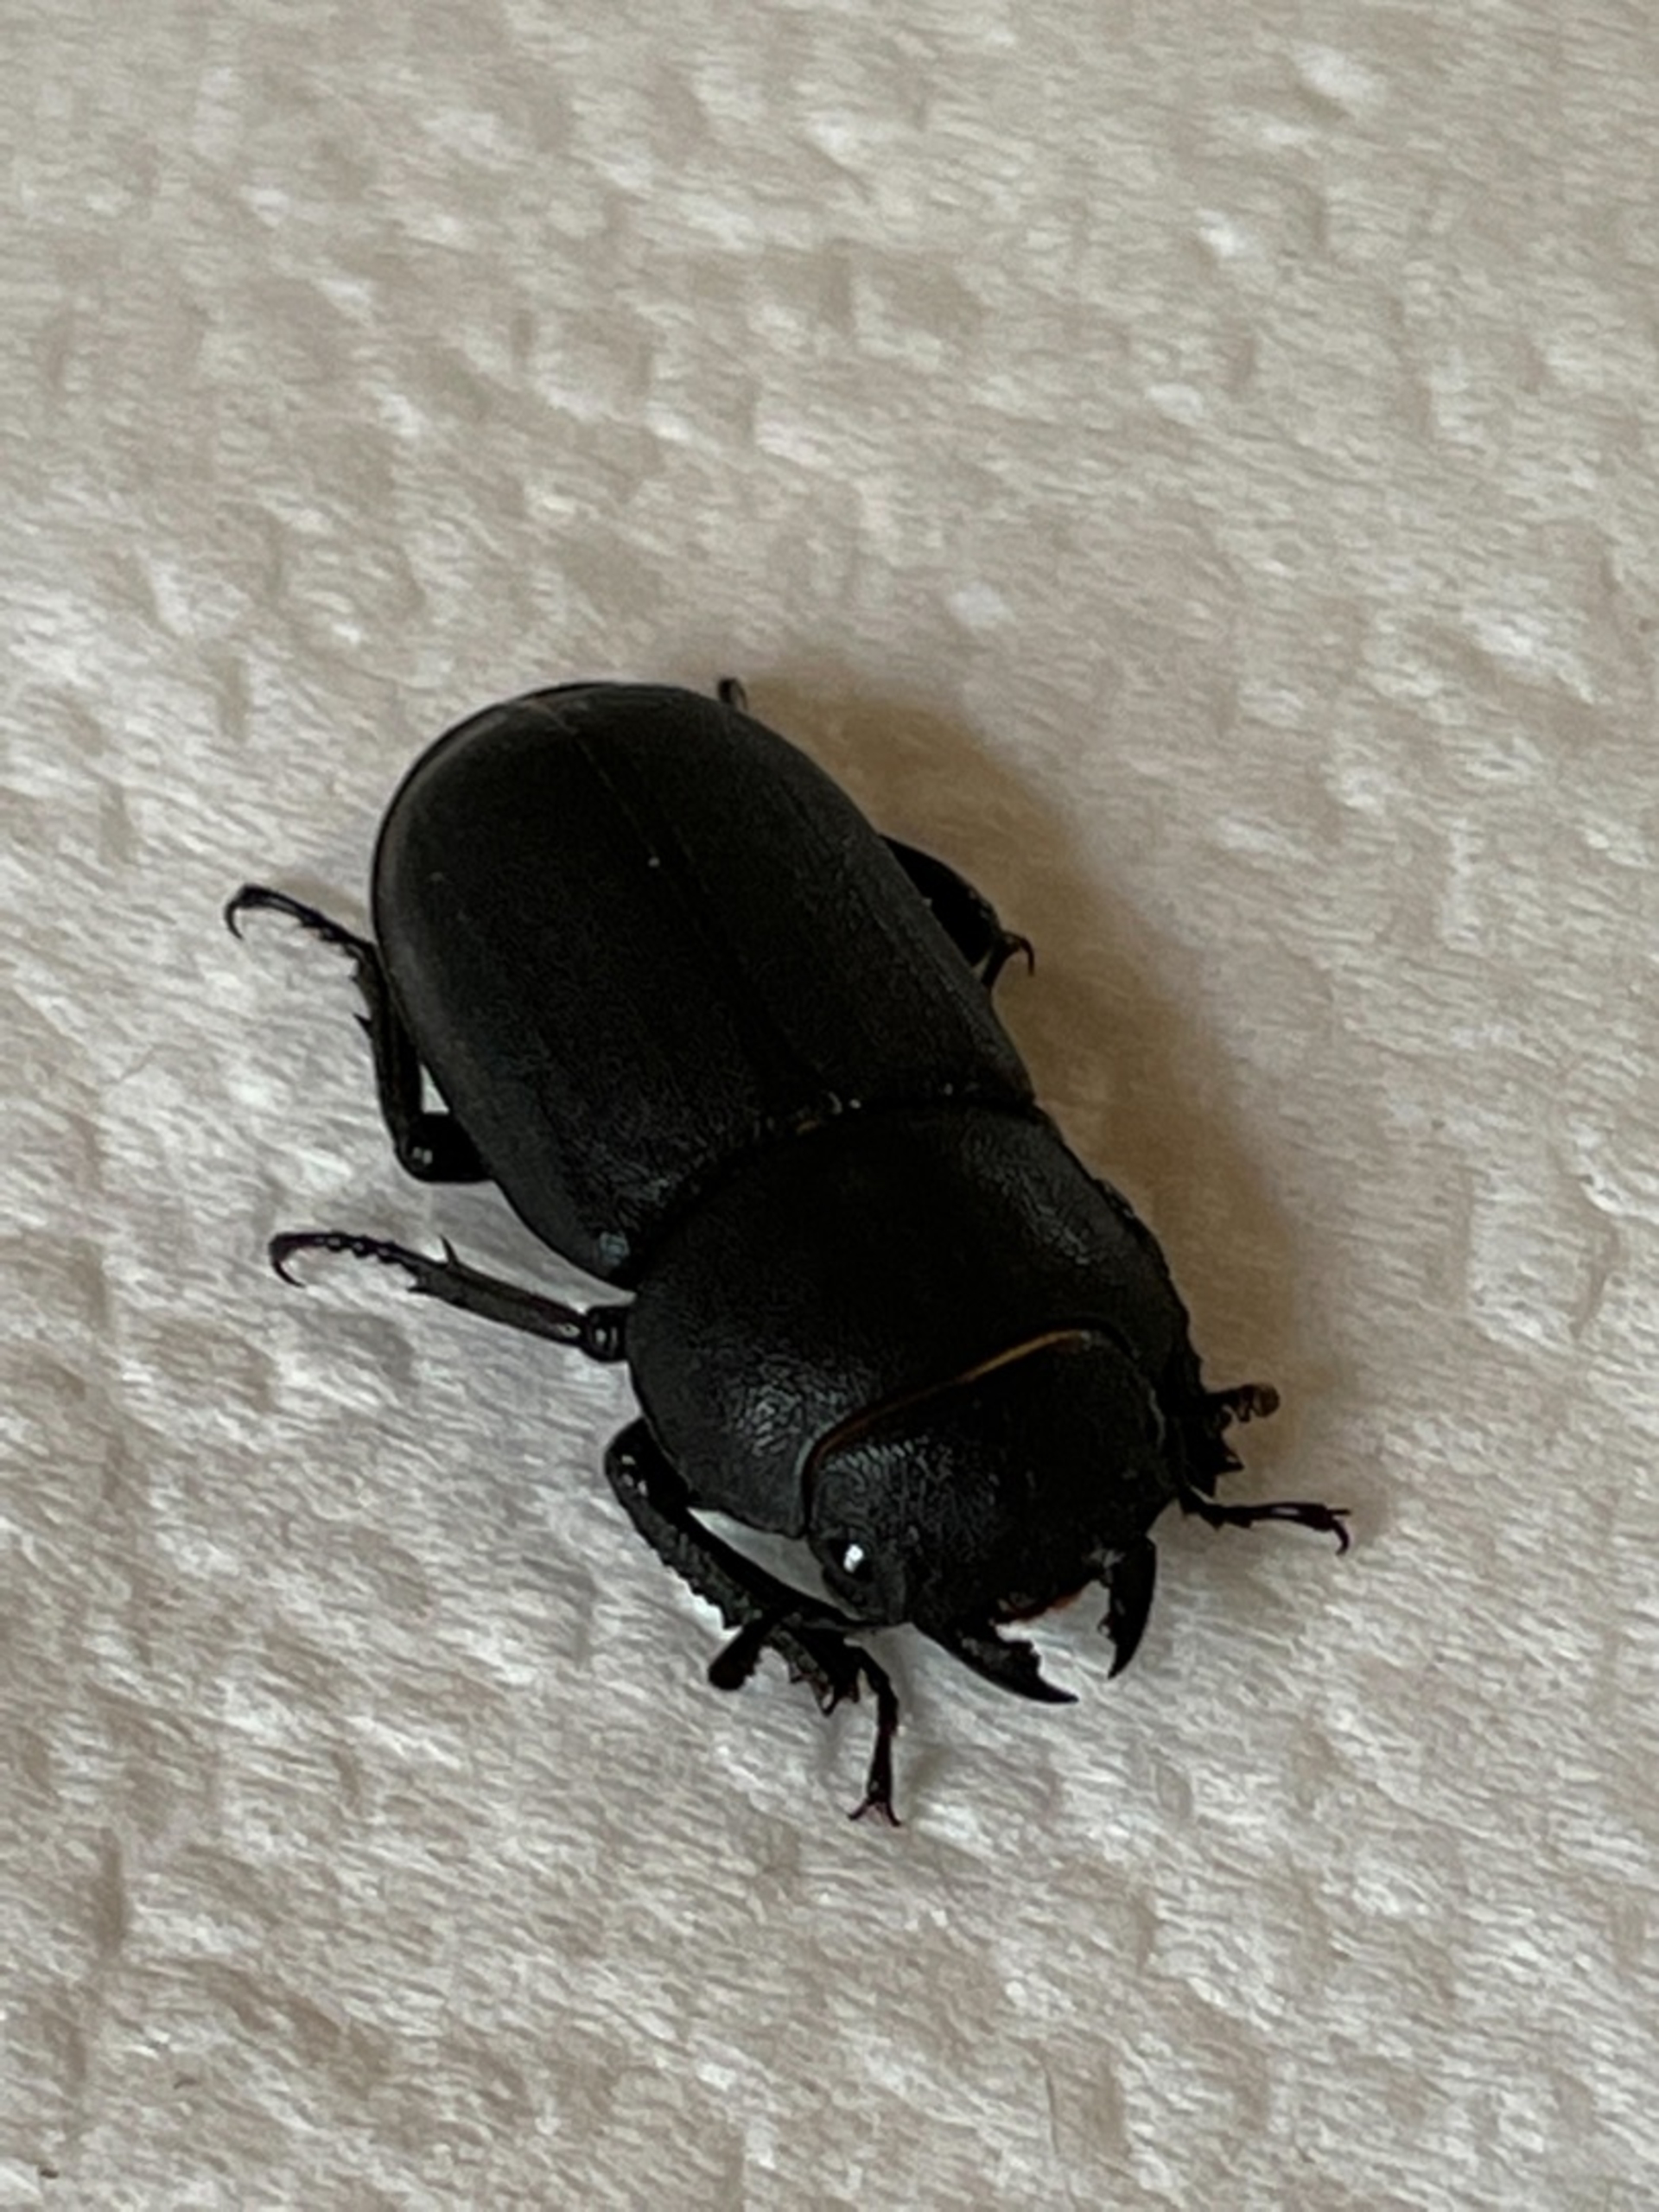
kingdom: Animalia
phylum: Arthropoda
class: Insecta
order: Coleoptera
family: Lucanidae
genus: Dorcus
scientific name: Dorcus parallelipipedus
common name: Bøghjort
